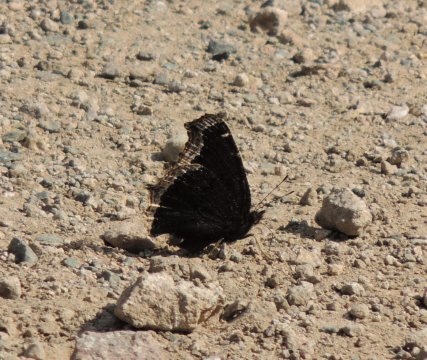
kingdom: Animalia
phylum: Arthropoda
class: Insecta
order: Lepidoptera
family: Nymphalidae
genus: Nymphalis
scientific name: Nymphalis antiopa
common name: Mourning Cloak
